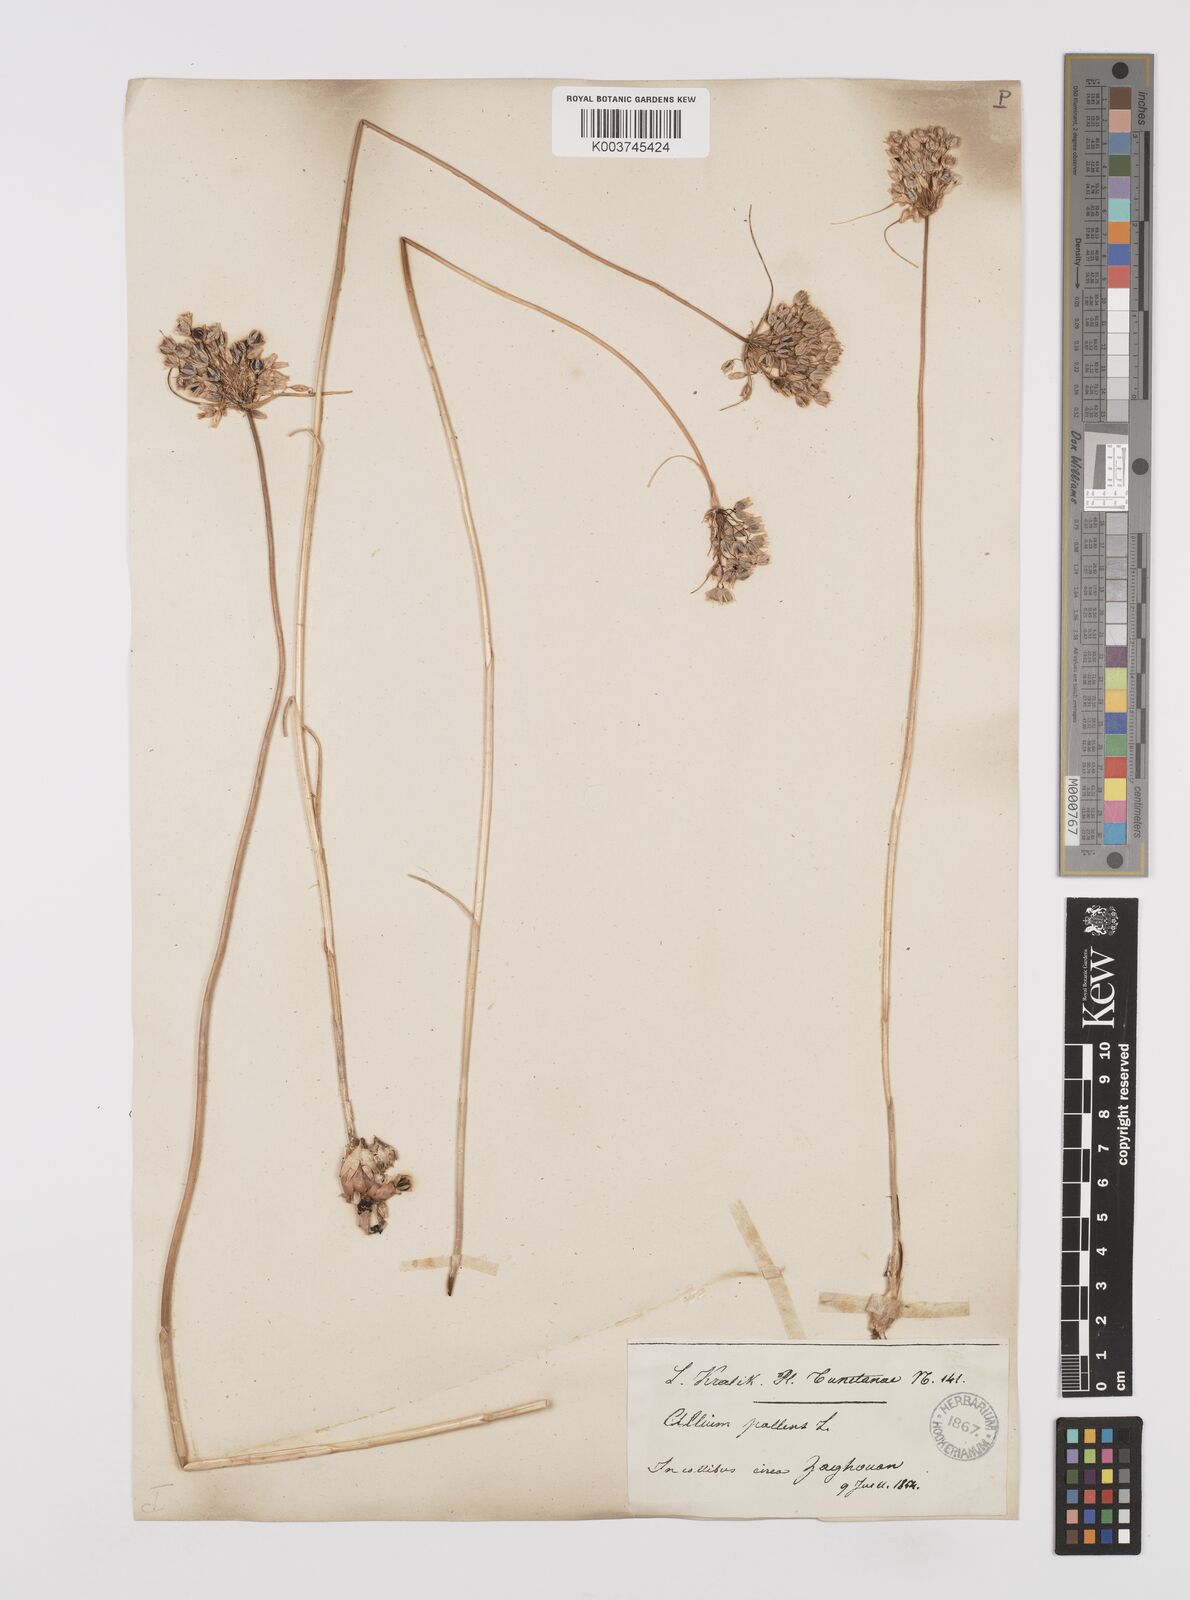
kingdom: Plantae
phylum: Tracheophyta
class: Liliopsida
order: Asparagales
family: Amaryllidaceae
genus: Allium
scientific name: Allium paniculatum
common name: Pale garlic
